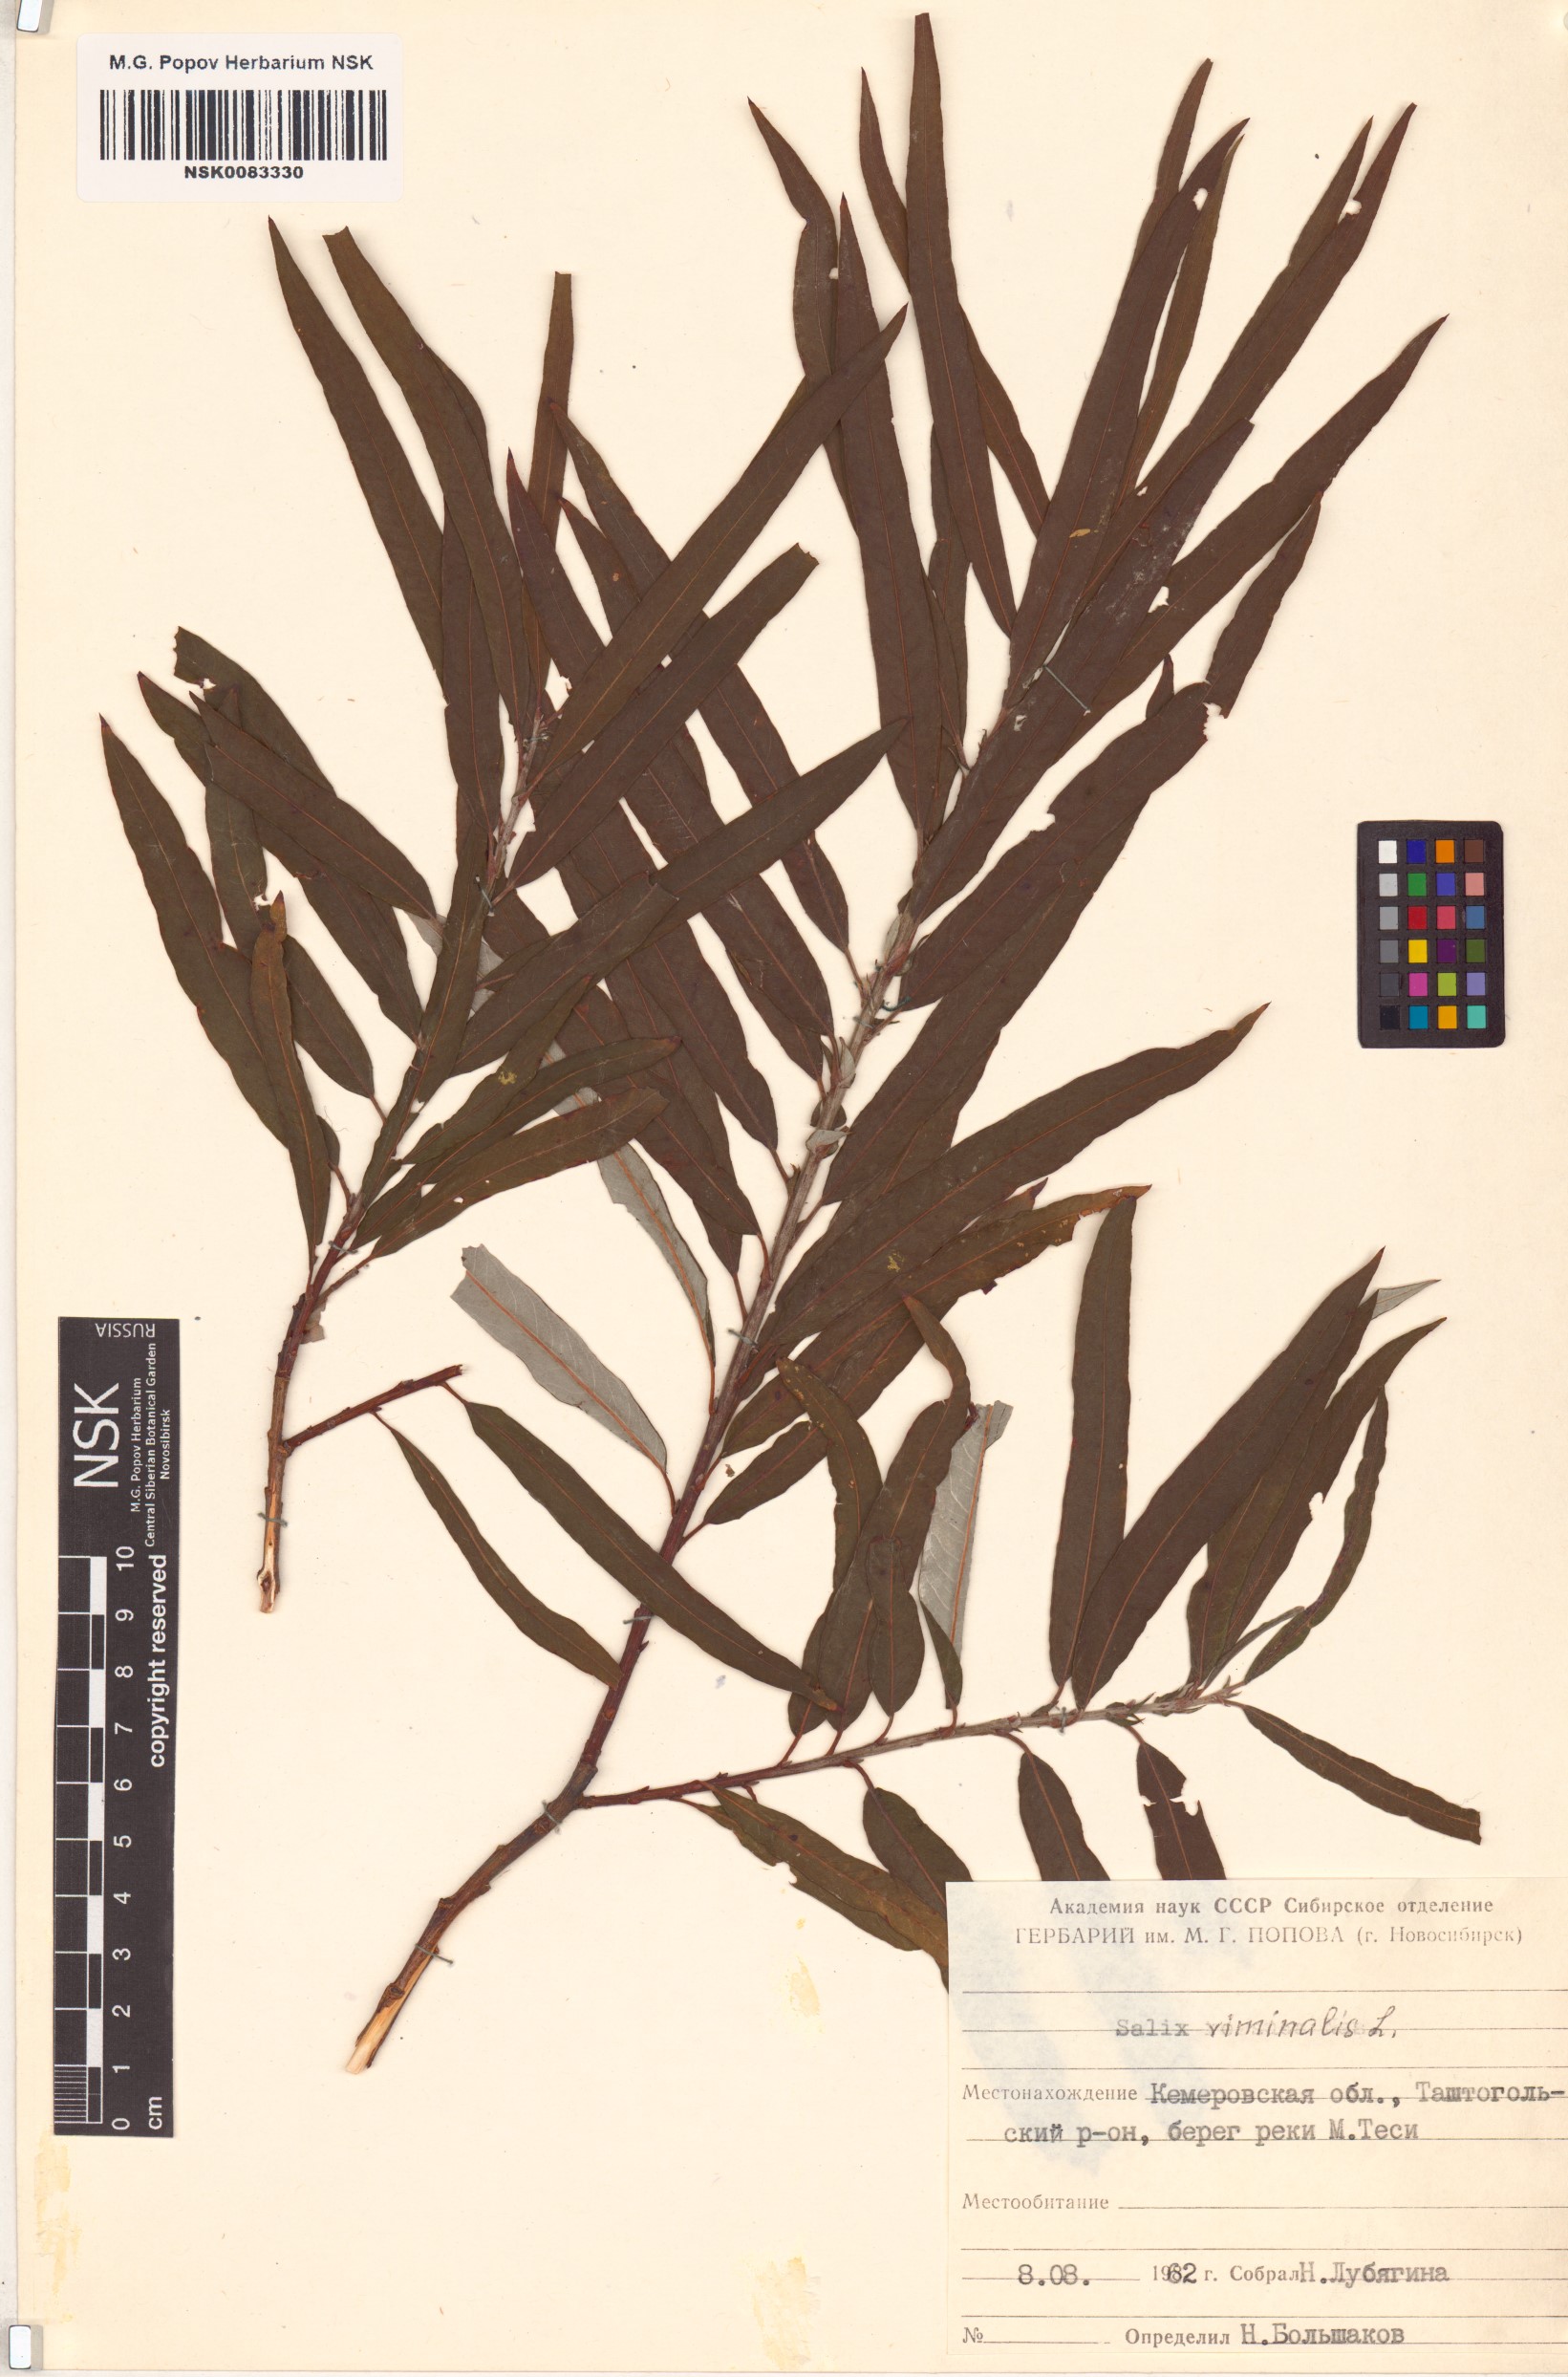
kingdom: Plantae
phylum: Tracheophyta
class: Magnoliopsida
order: Malpighiales
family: Salicaceae
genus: Salix
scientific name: Salix viminalis
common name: Osier
